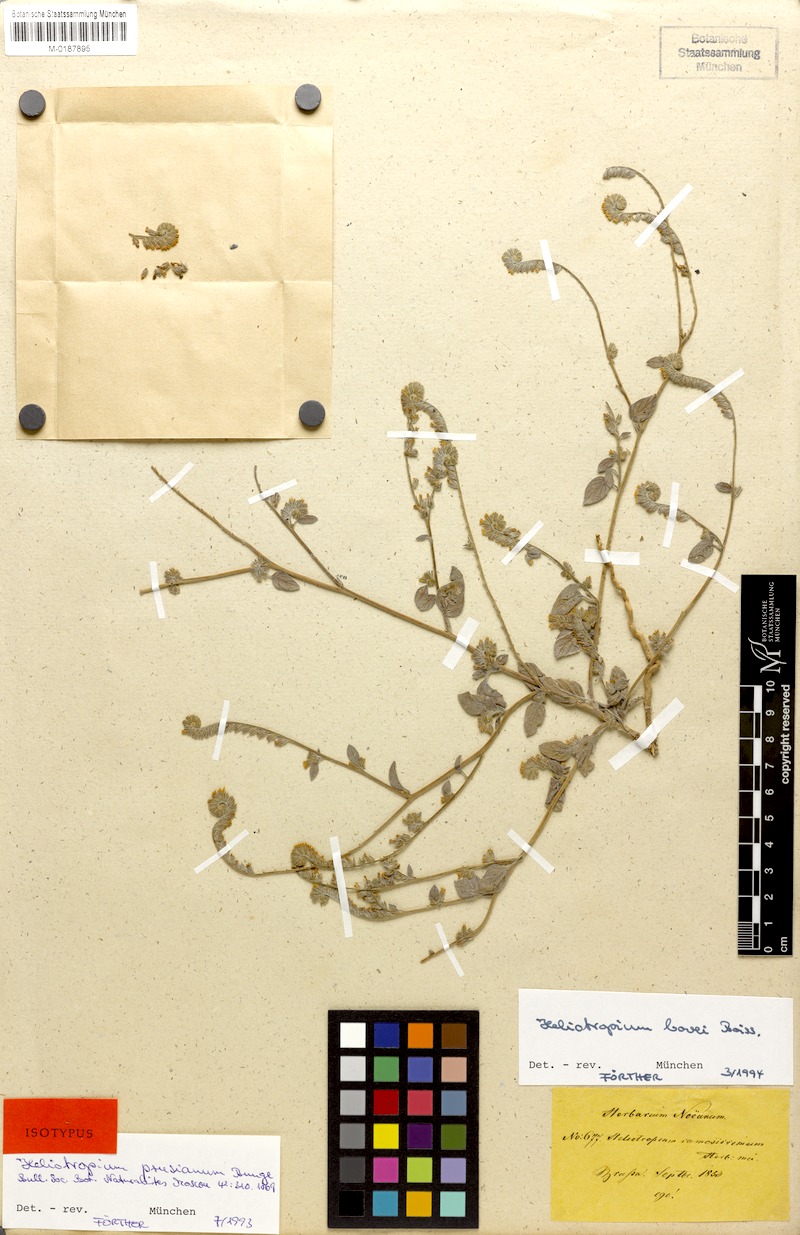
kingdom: Plantae
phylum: Tracheophyta
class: Magnoliopsida
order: Boraginales
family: Heliotropiaceae
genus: Heliotropium
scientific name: Heliotropium bovei
